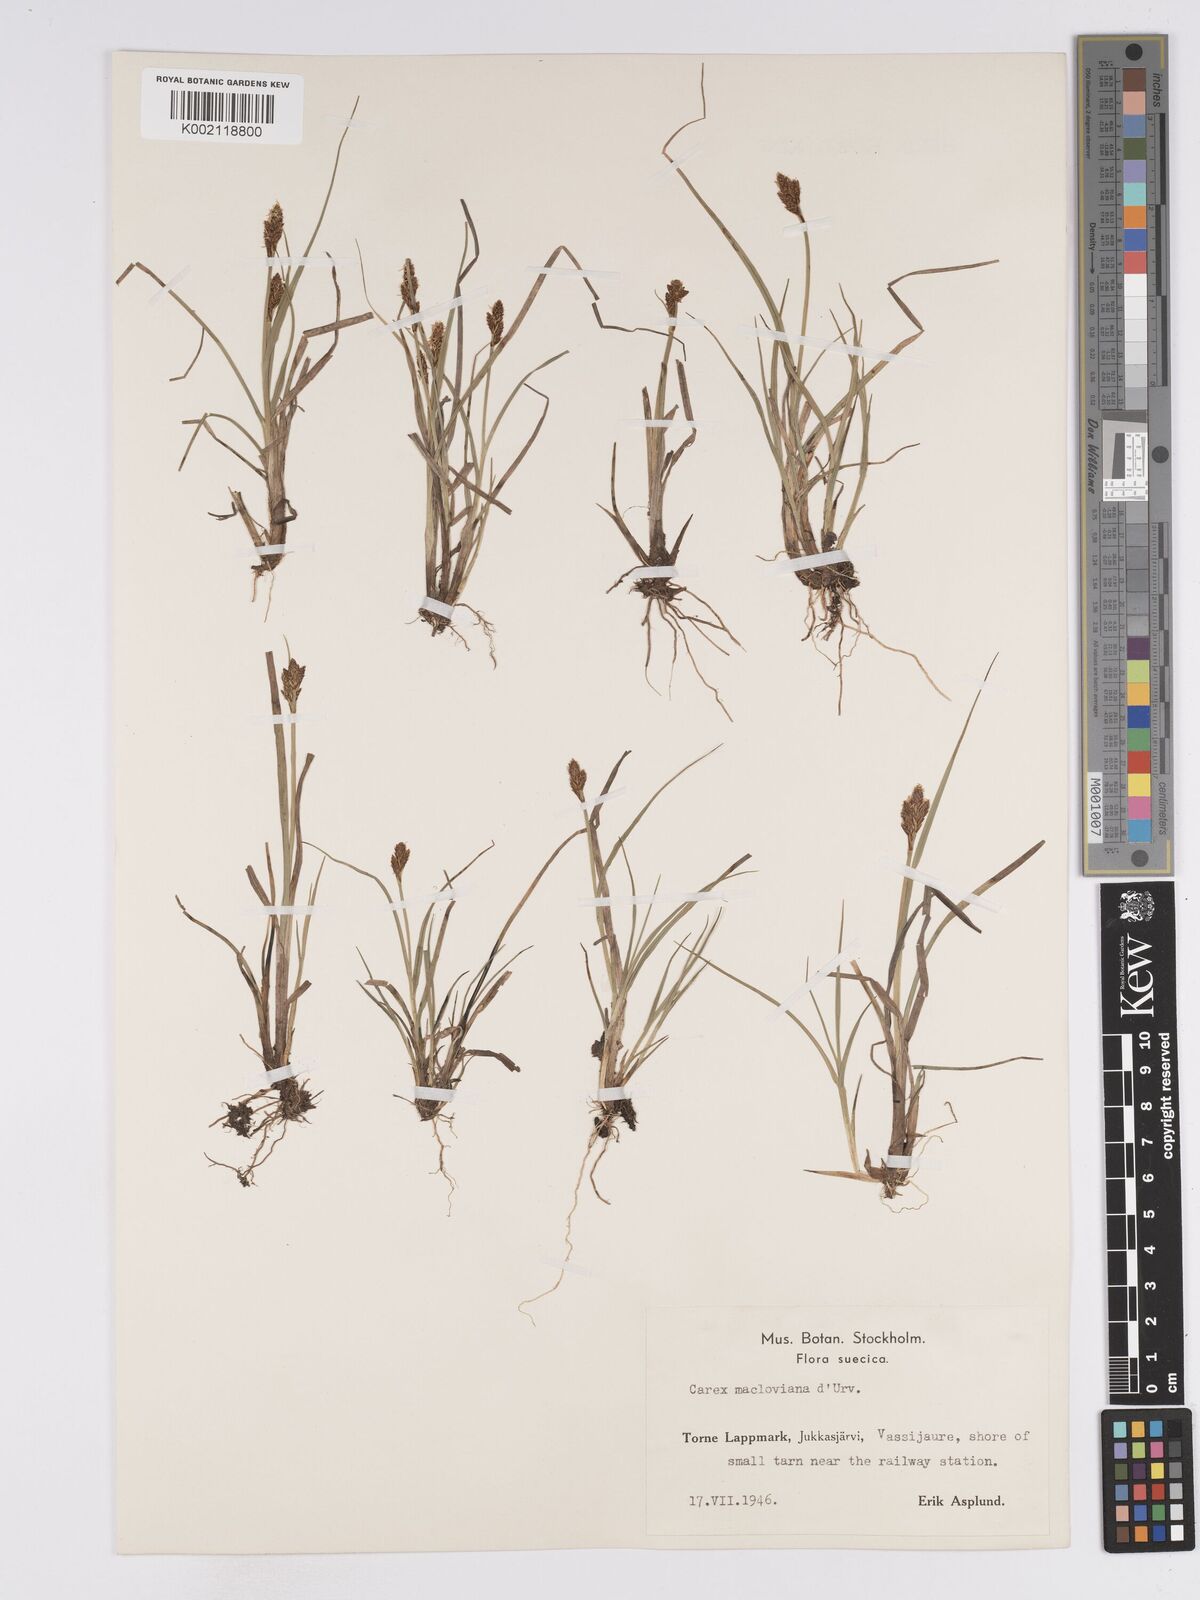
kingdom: Plantae
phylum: Tracheophyta
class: Liliopsida
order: Poales
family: Cyperaceae
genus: Carex
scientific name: Carex macloviana
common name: Falkland island sedge
